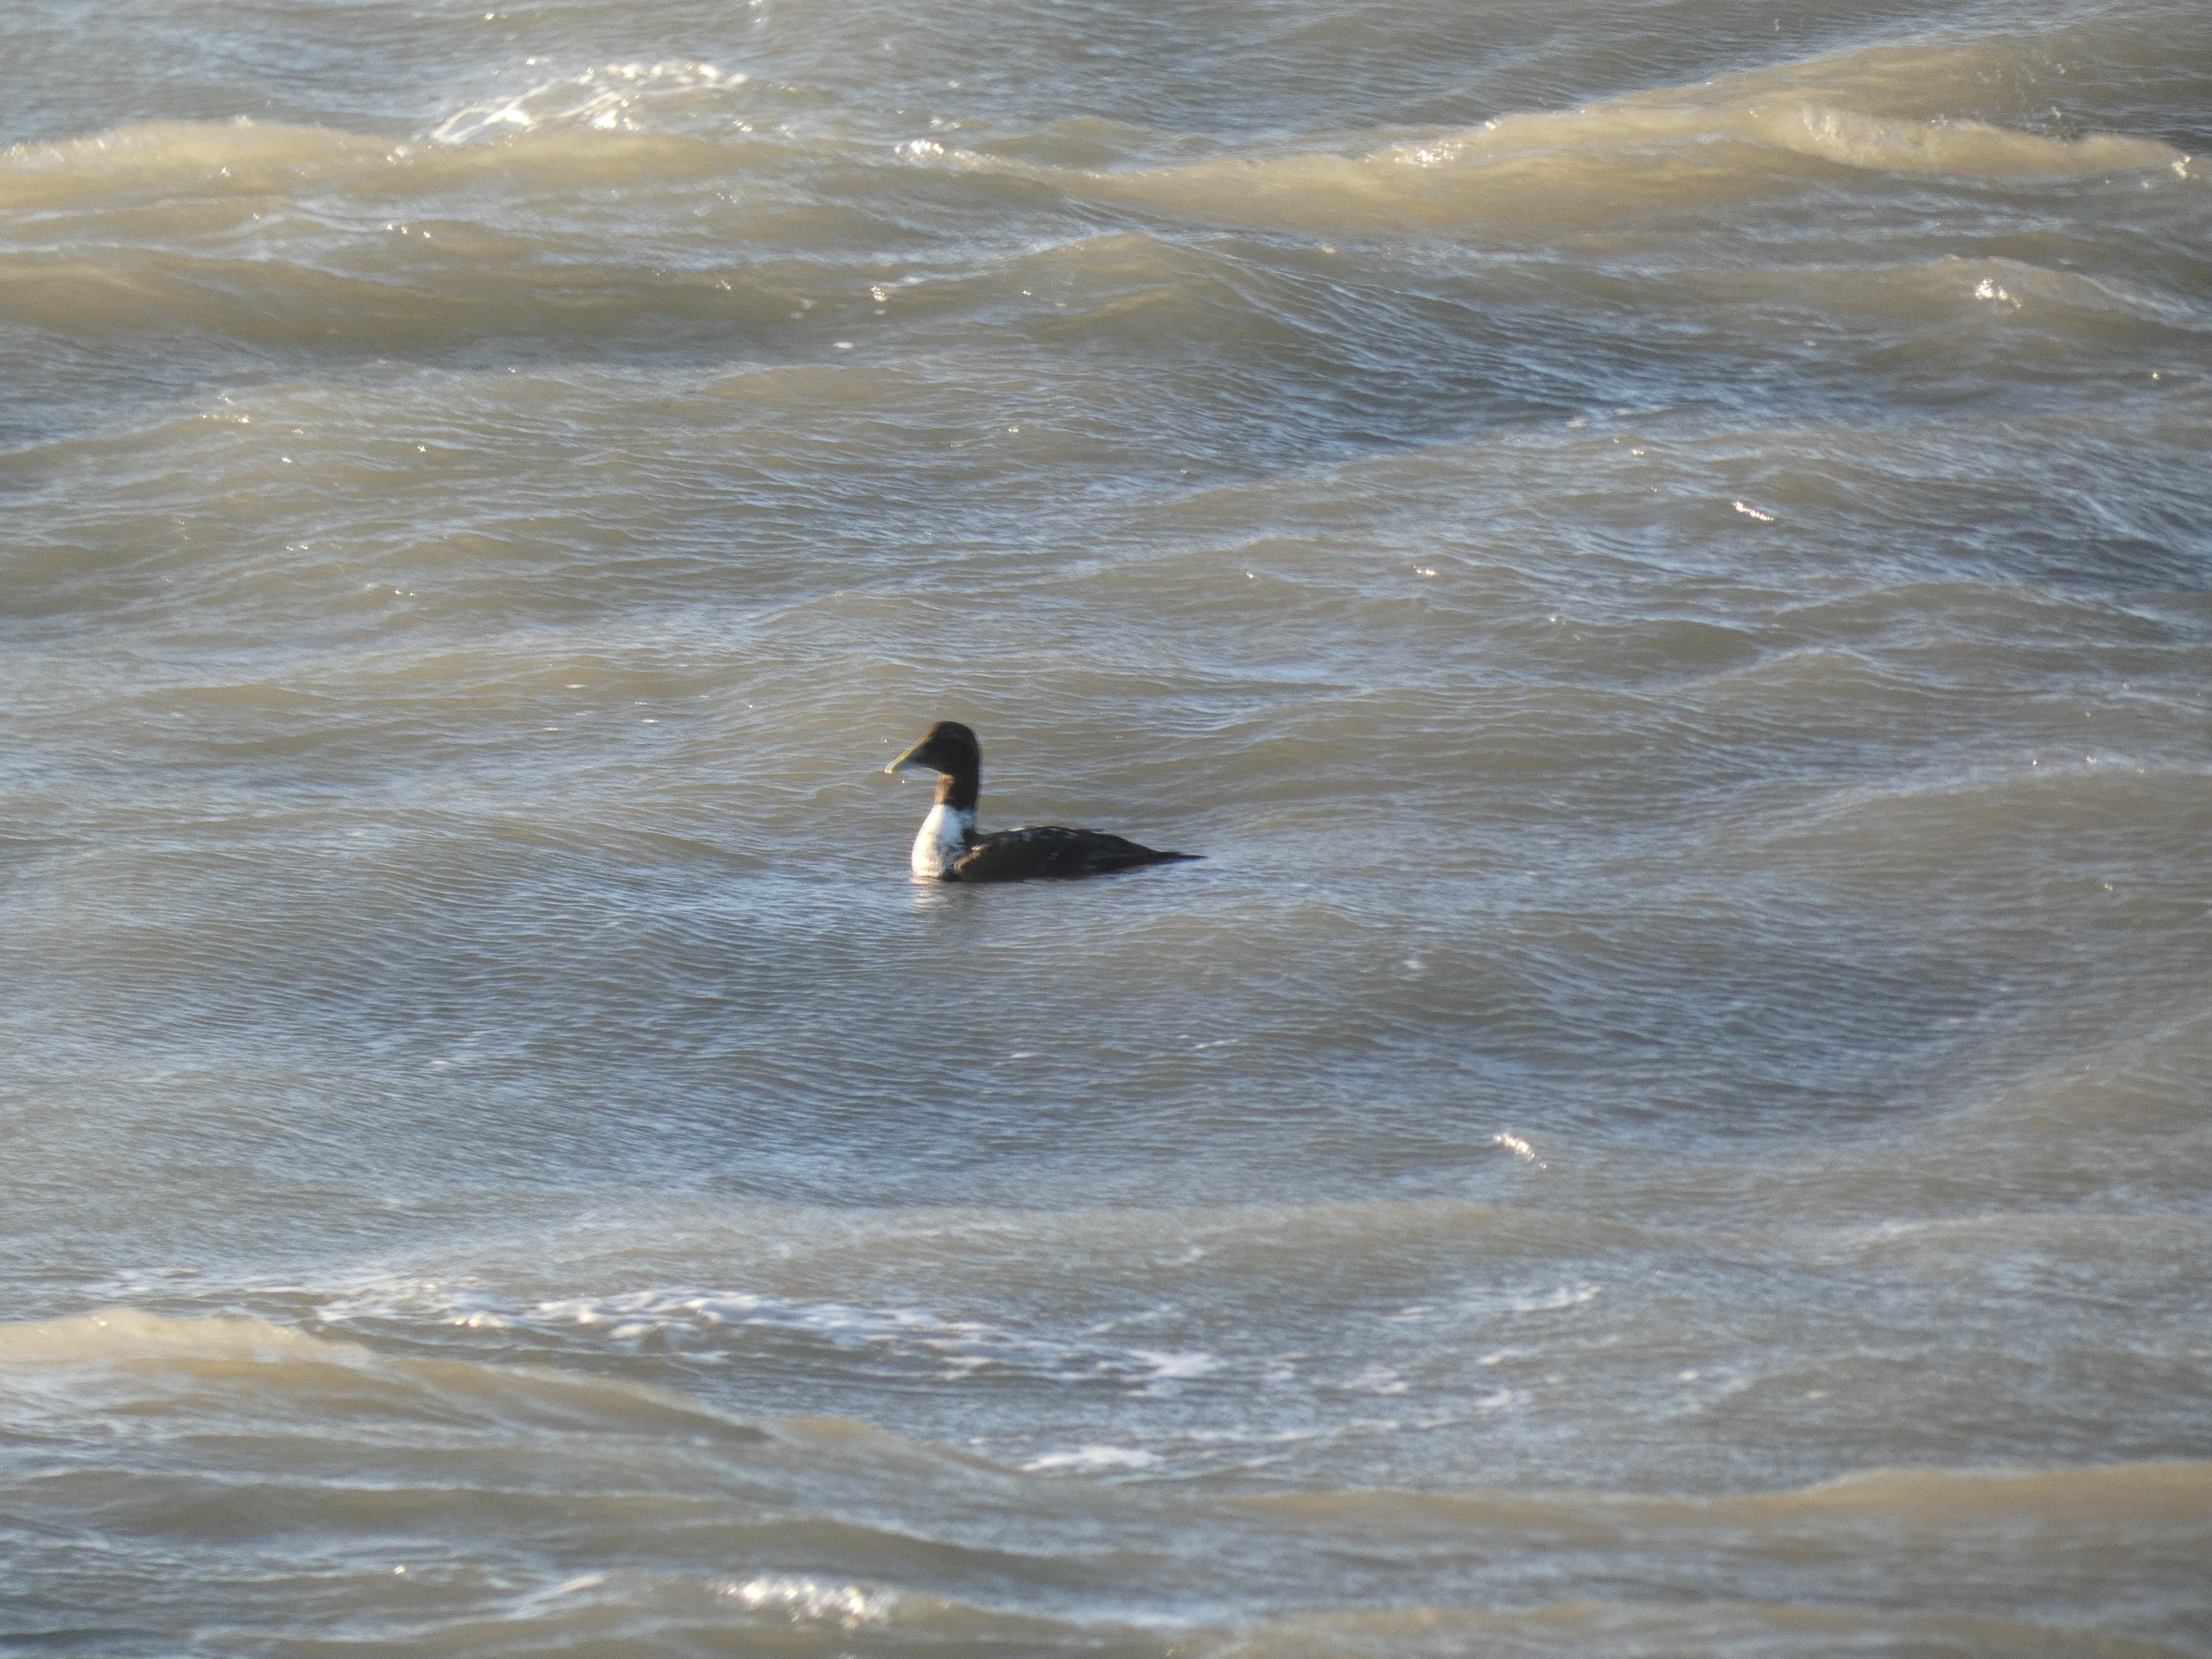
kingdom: Animalia
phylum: Chordata
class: Aves
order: Anseriformes
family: Anatidae
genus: Somateria
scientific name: Somateria mollissima
